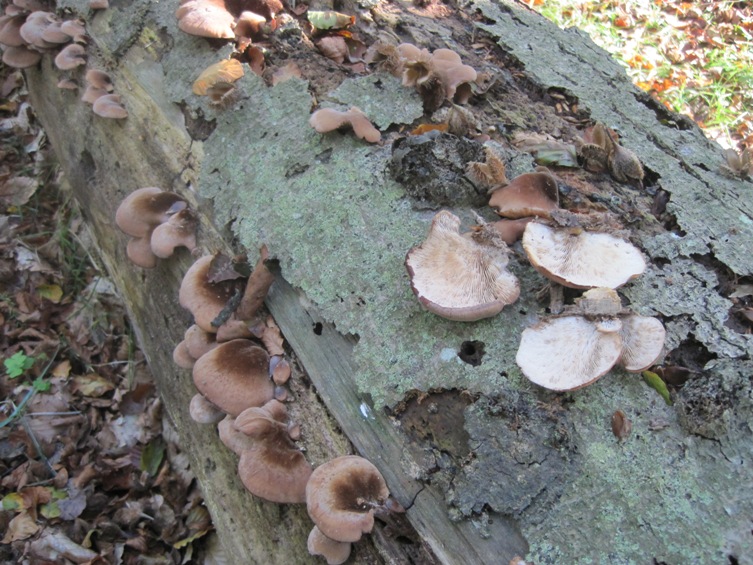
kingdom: Fungi
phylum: Basidiomycota
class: Agaricomycetes
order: Russulales
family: Auriscalpiaceae
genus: Lentinellus
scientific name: Lentinellus ursinus
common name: børstehåret savbladhat
